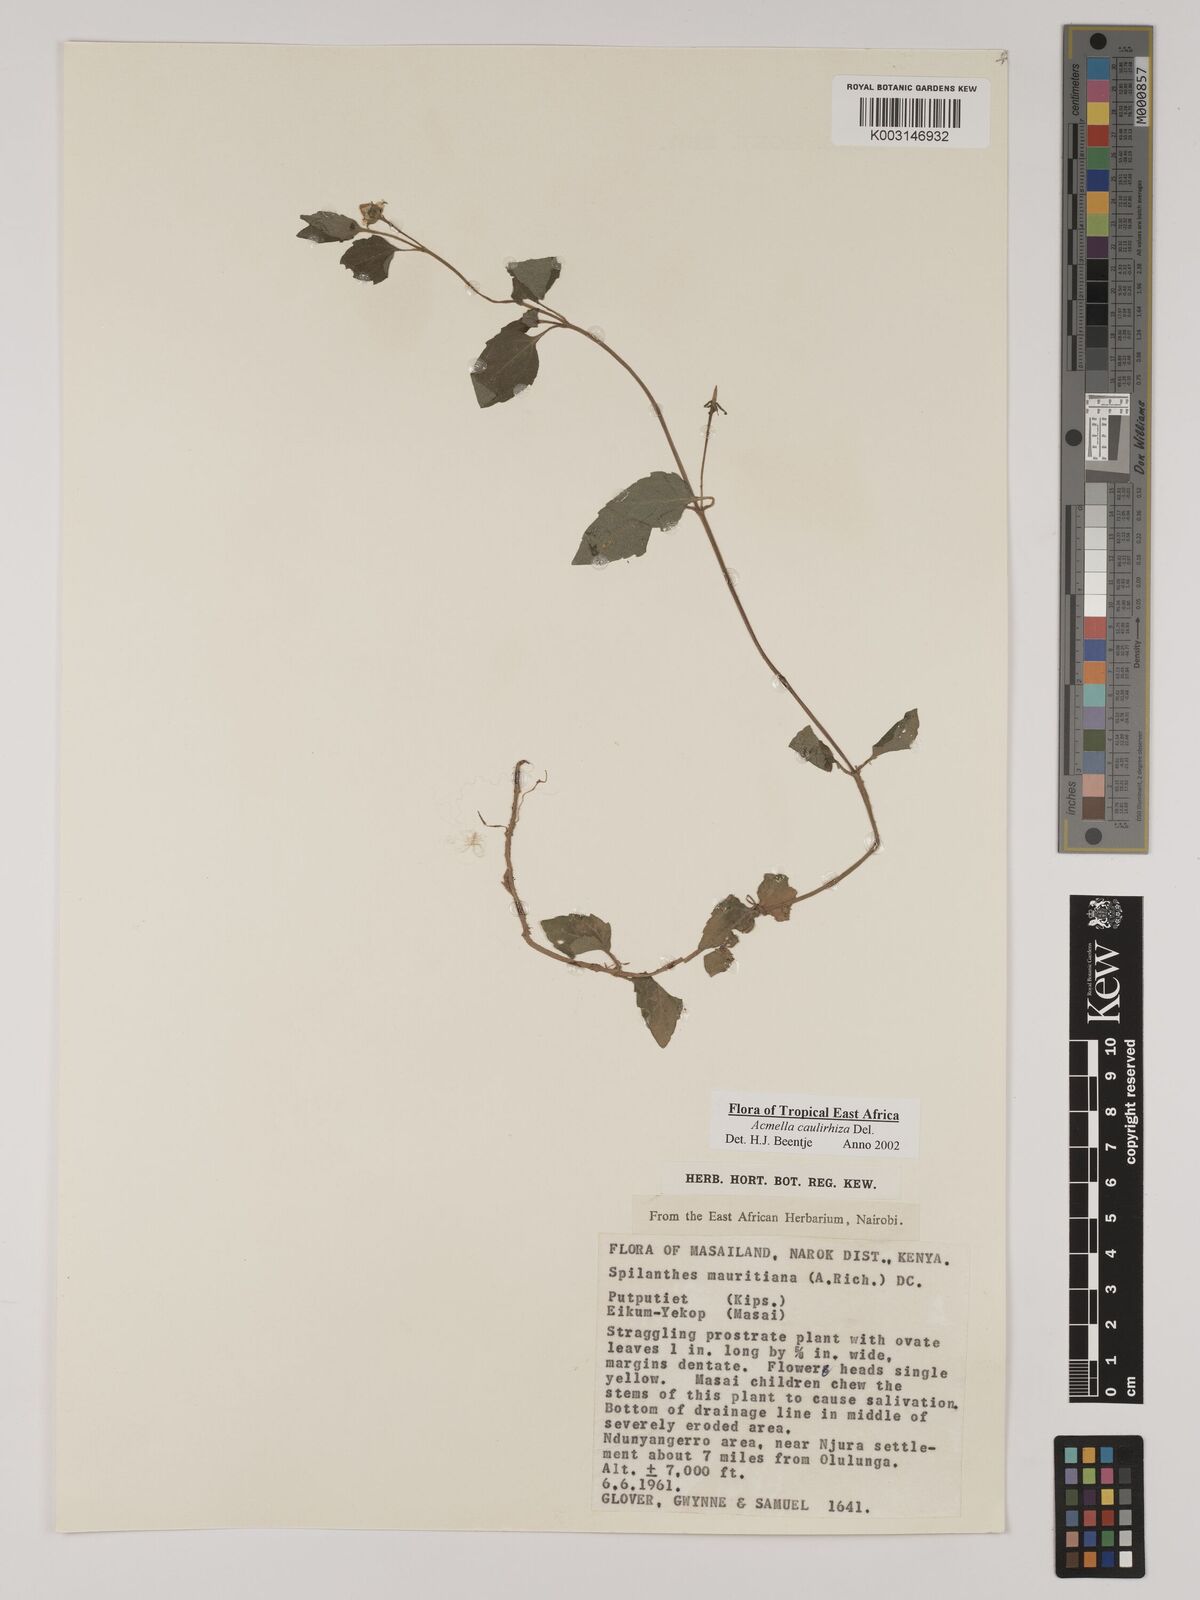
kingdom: Plantae
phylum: Tracheophyta
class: Magnoliopsida
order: Asterales
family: Asteraceae
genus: Acmella
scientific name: Acmella caulirhiza
